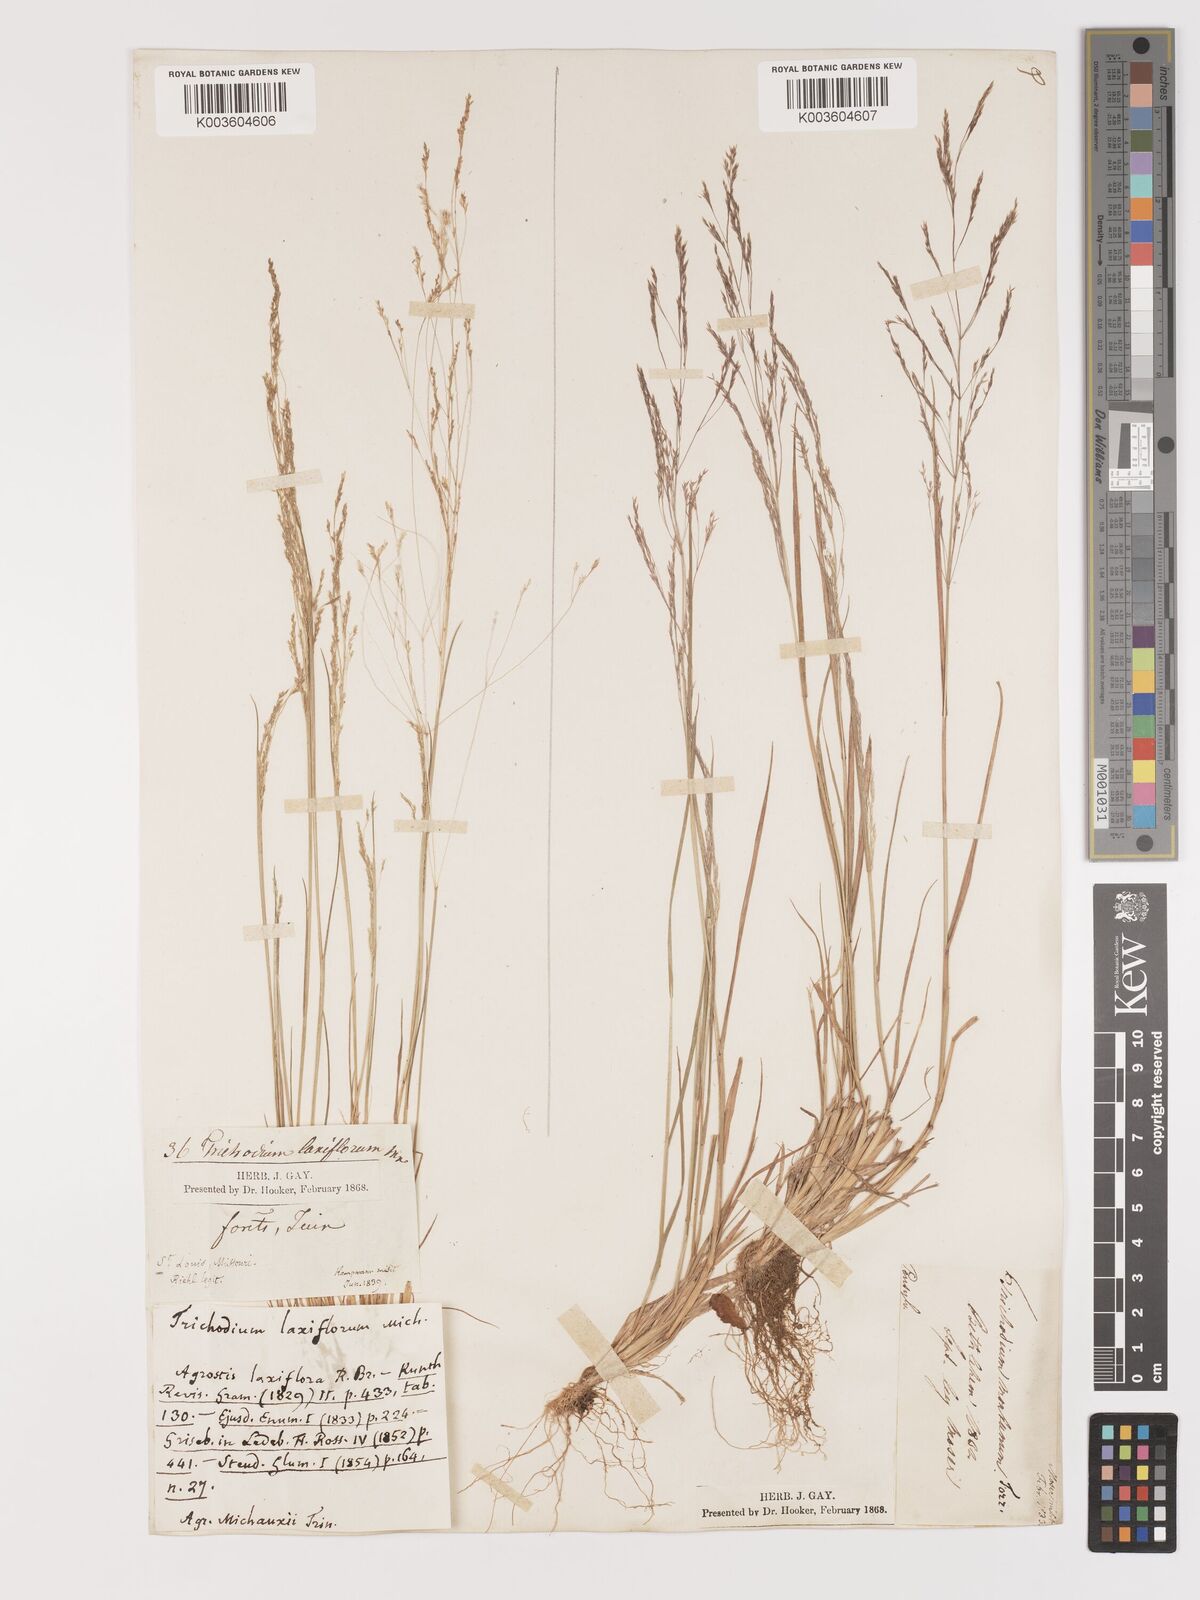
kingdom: Plantae
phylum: Tracheophyta
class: Liliopsida
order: Poales
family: Poaceae
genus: Agrostis
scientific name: Agrostis hyemalis
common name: Small bent
